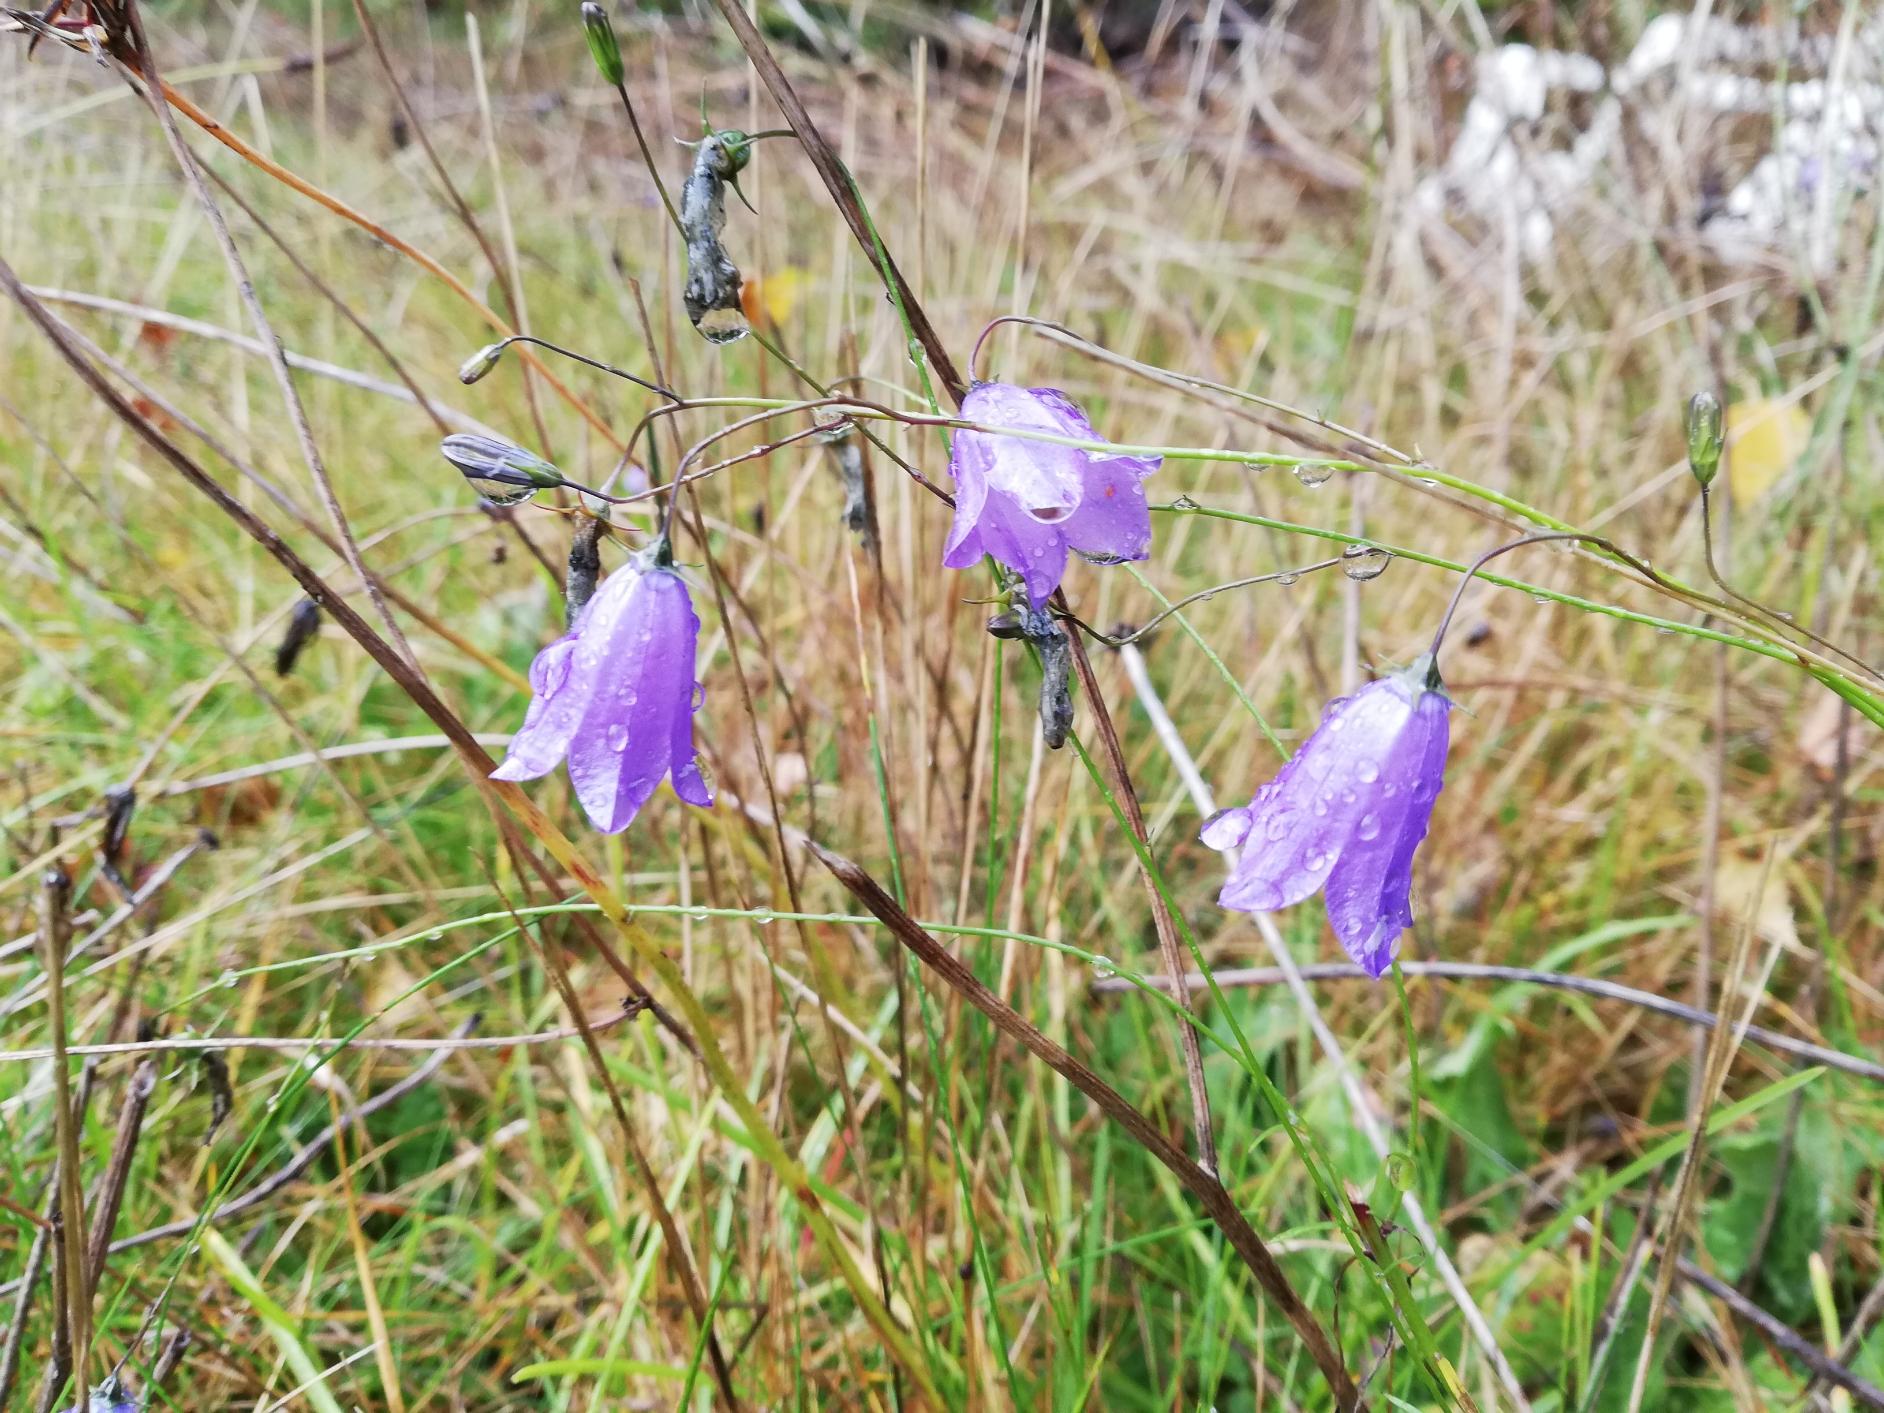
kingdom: Plantae
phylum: Tracheophyta
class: Magnoliopsida
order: Asterales
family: Campanulaceae
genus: Campanula
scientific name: Campanula rotundifolia
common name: Liden klokke
